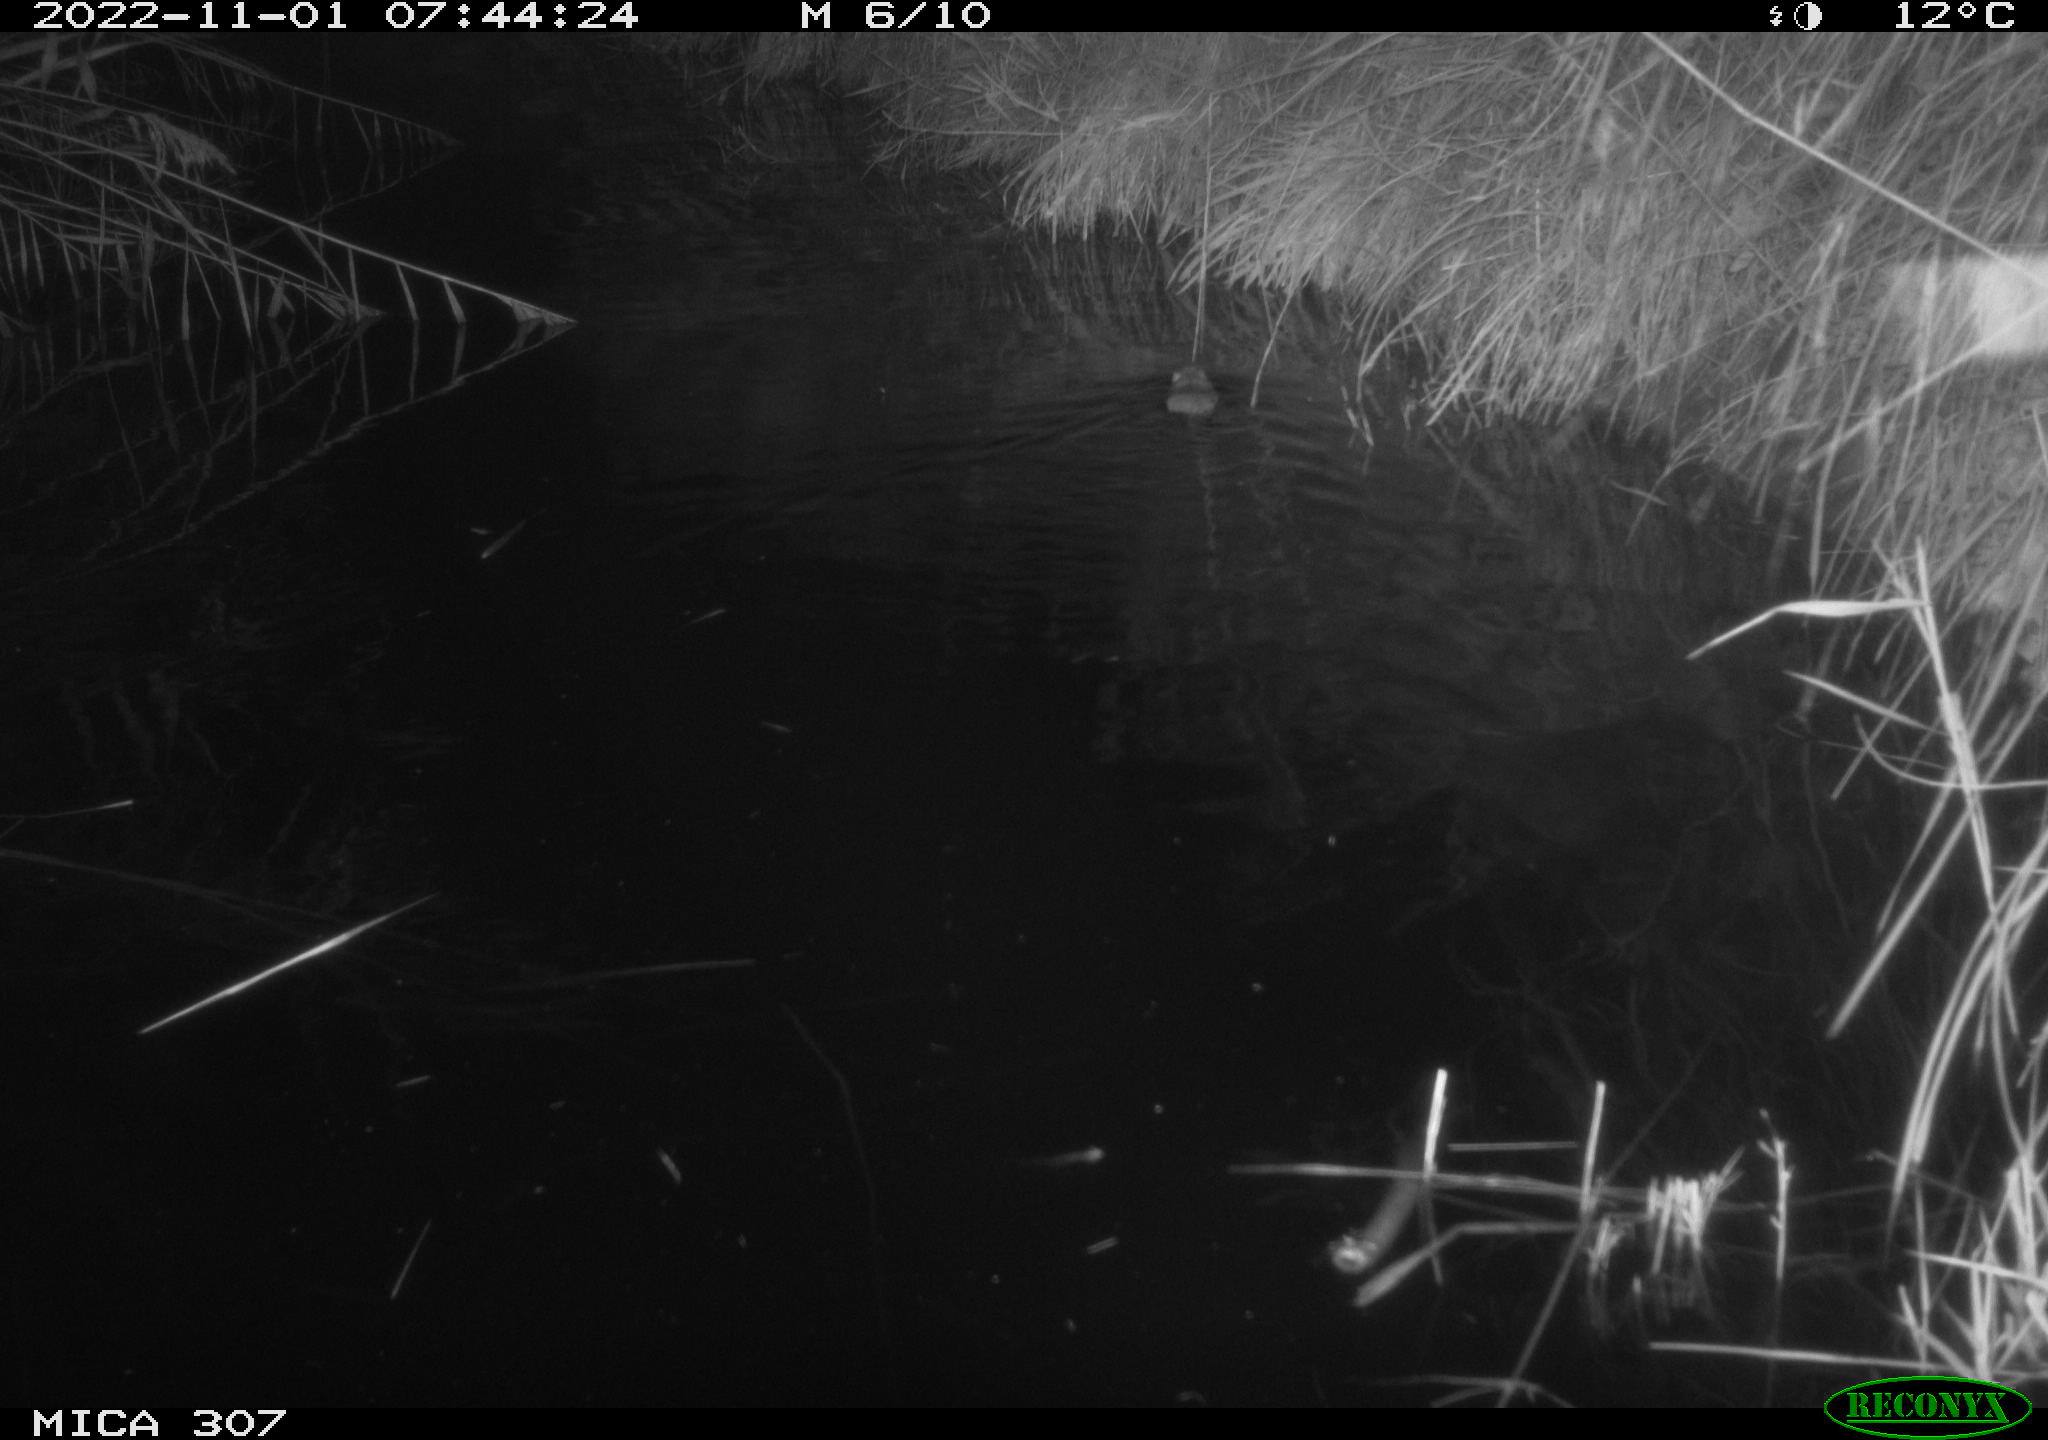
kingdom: Animalia
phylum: Chordata
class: Mammalia
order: Rodentia
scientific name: Rodentia
